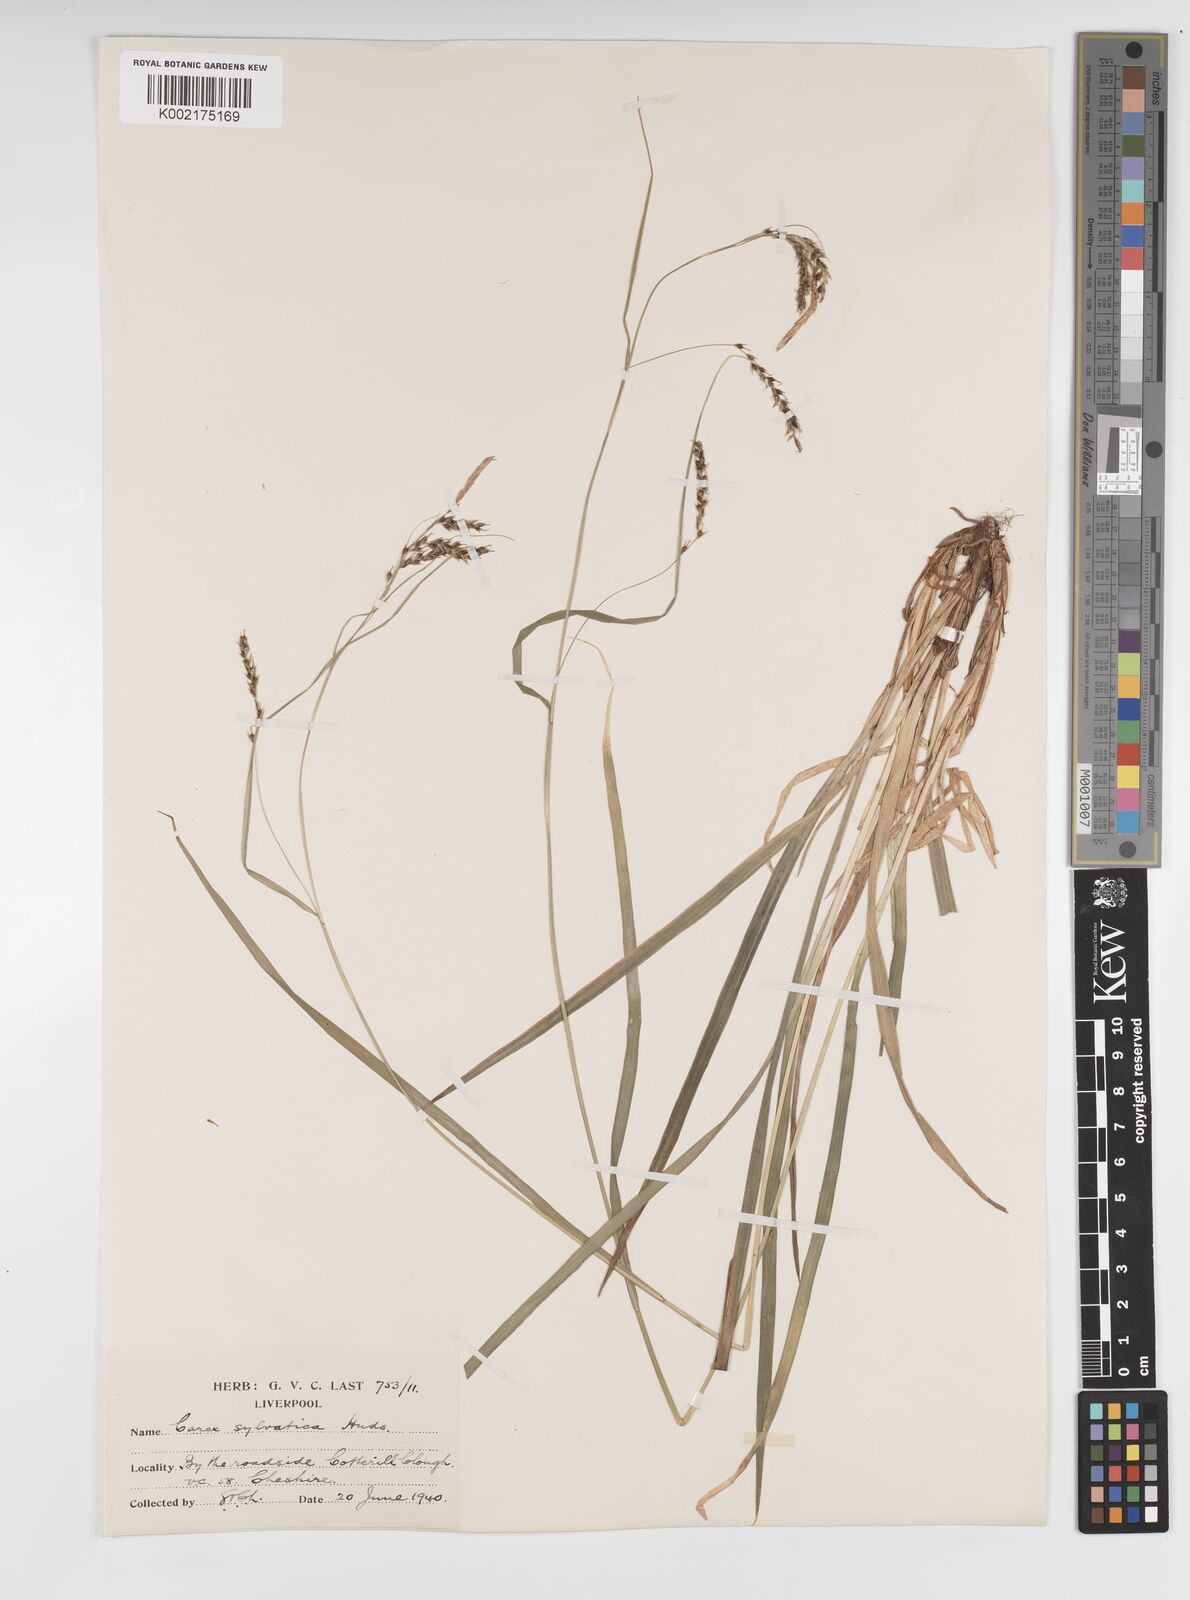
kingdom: Plantae
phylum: Tracheophyta
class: Liliopsida
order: Poales
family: Cyperaceae
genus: Carex
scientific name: Carex sylvatica
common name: Wood-sedge
